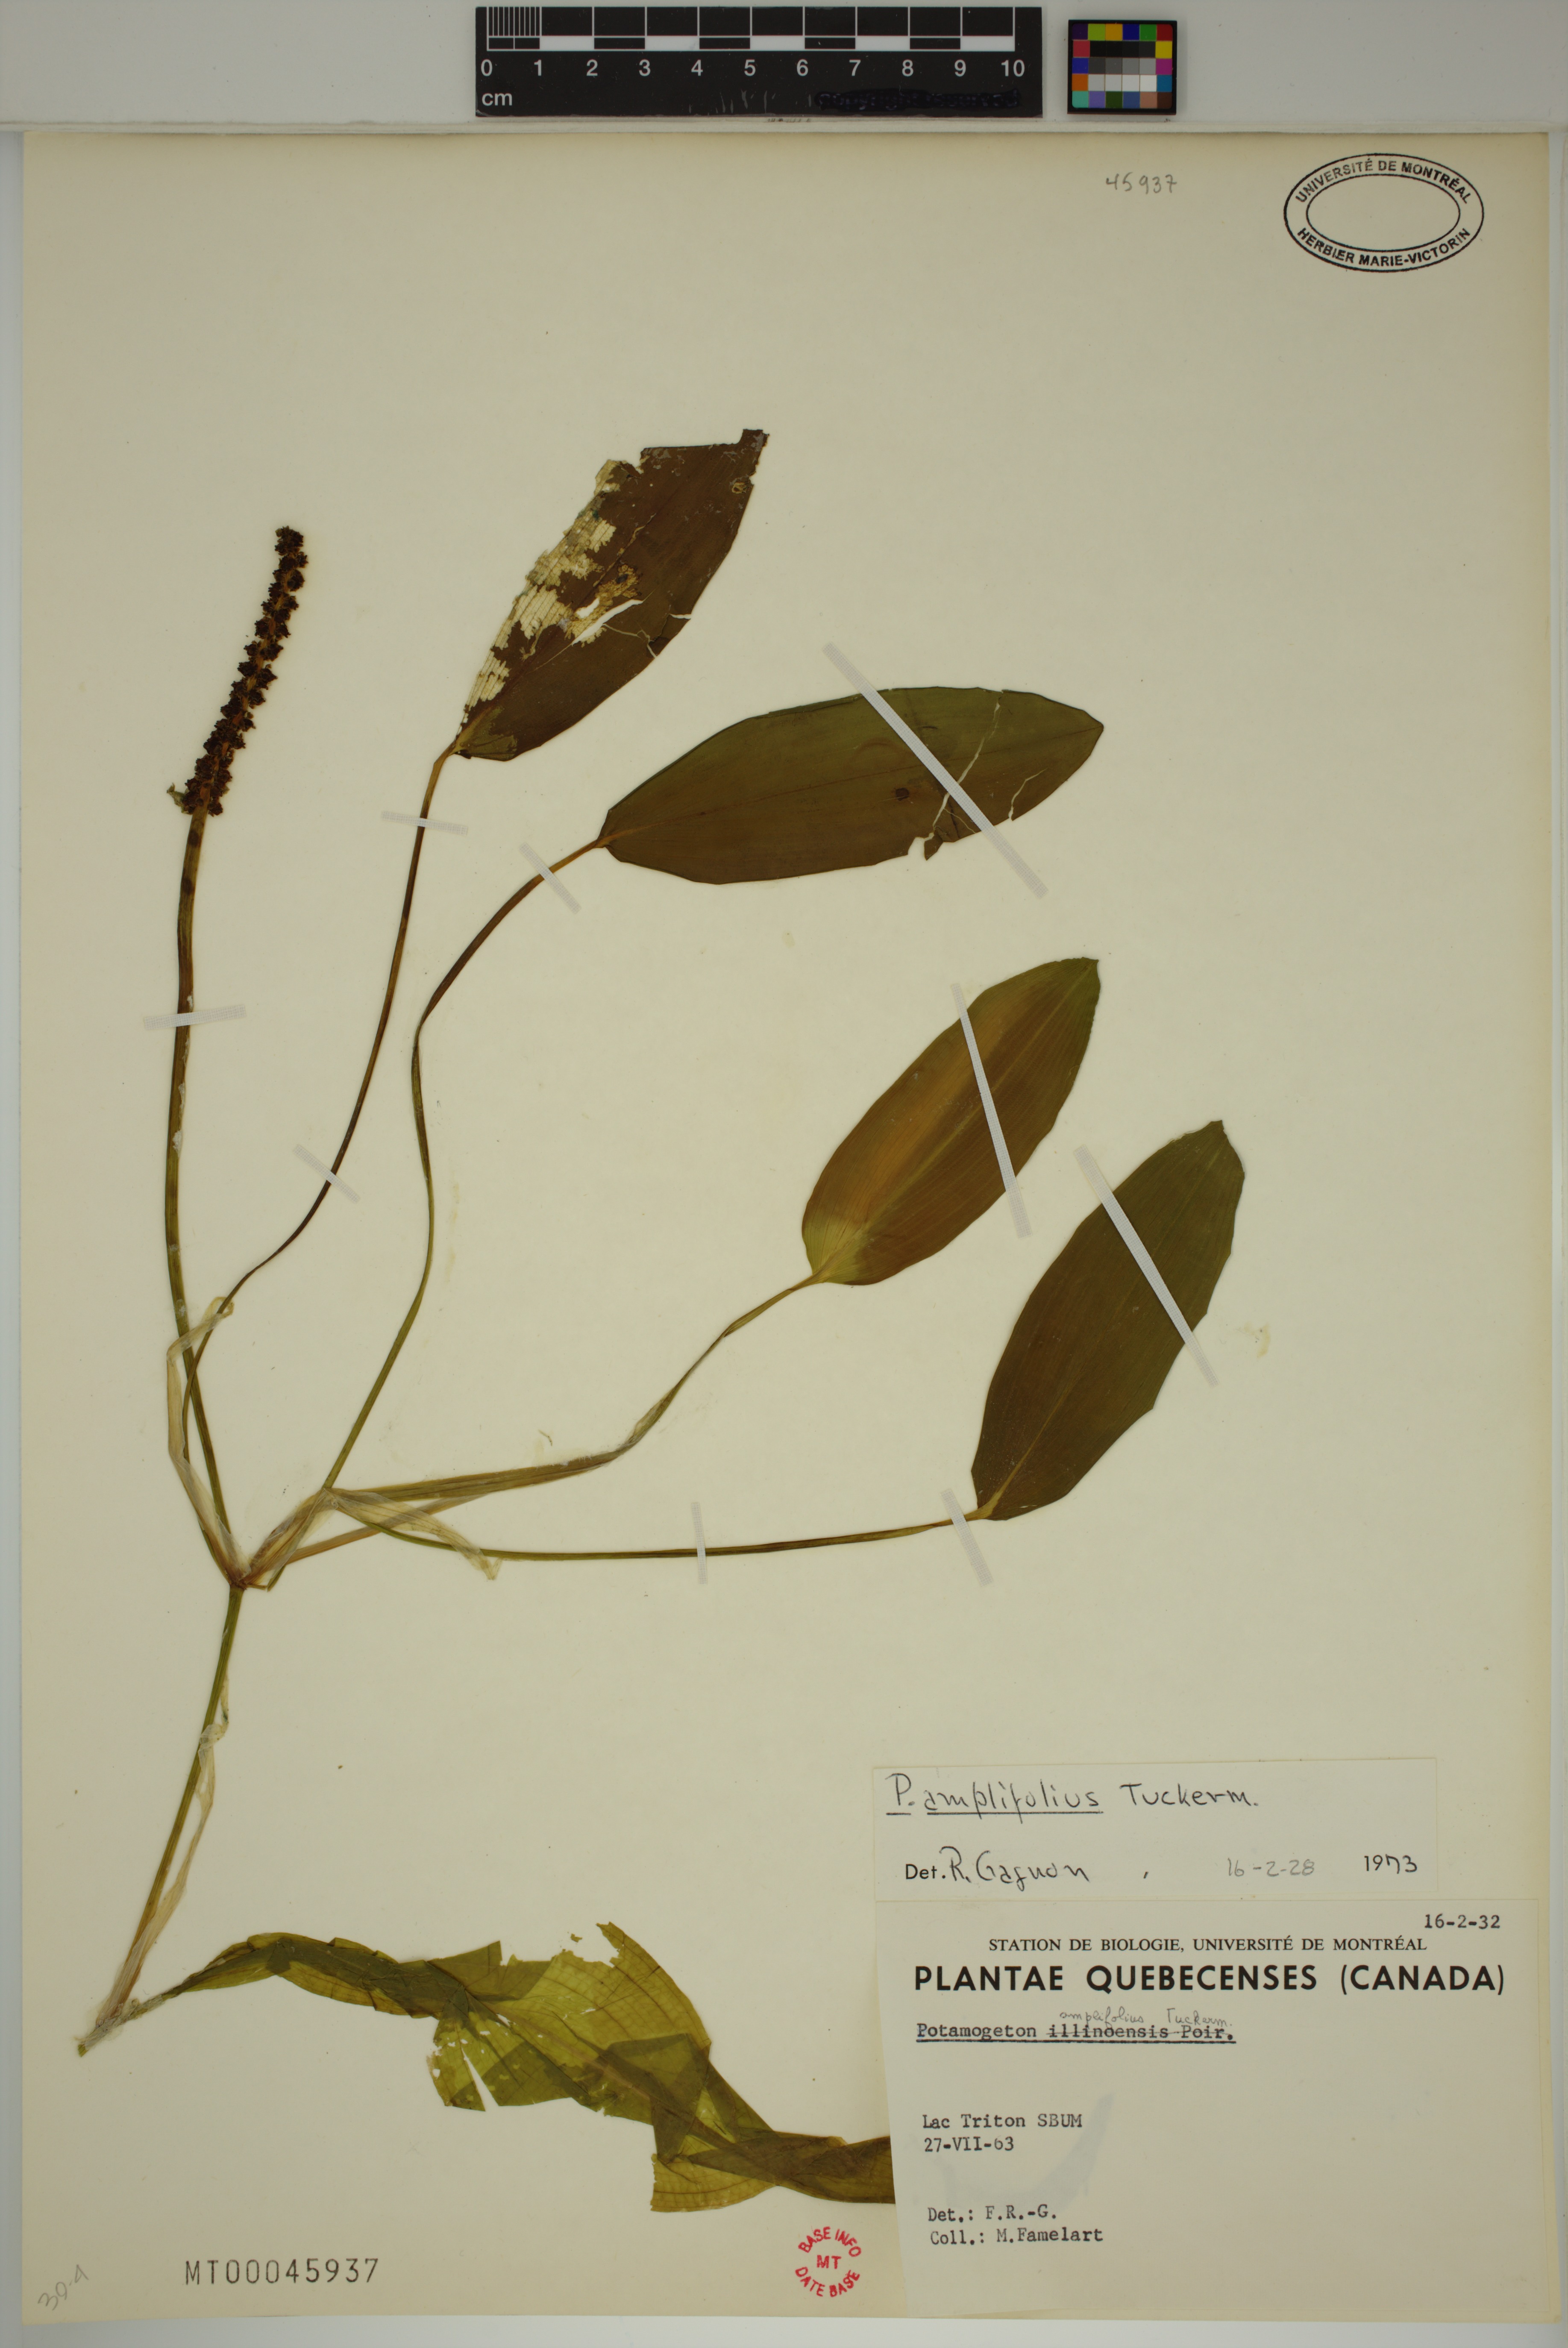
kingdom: Plantae
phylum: Tracheophyta
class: Liliopsida
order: Alismatales
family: Potamogetonaceae
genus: Potamogeton
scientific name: Potamogeton amplifolius
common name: Broad-leaved pondweed
